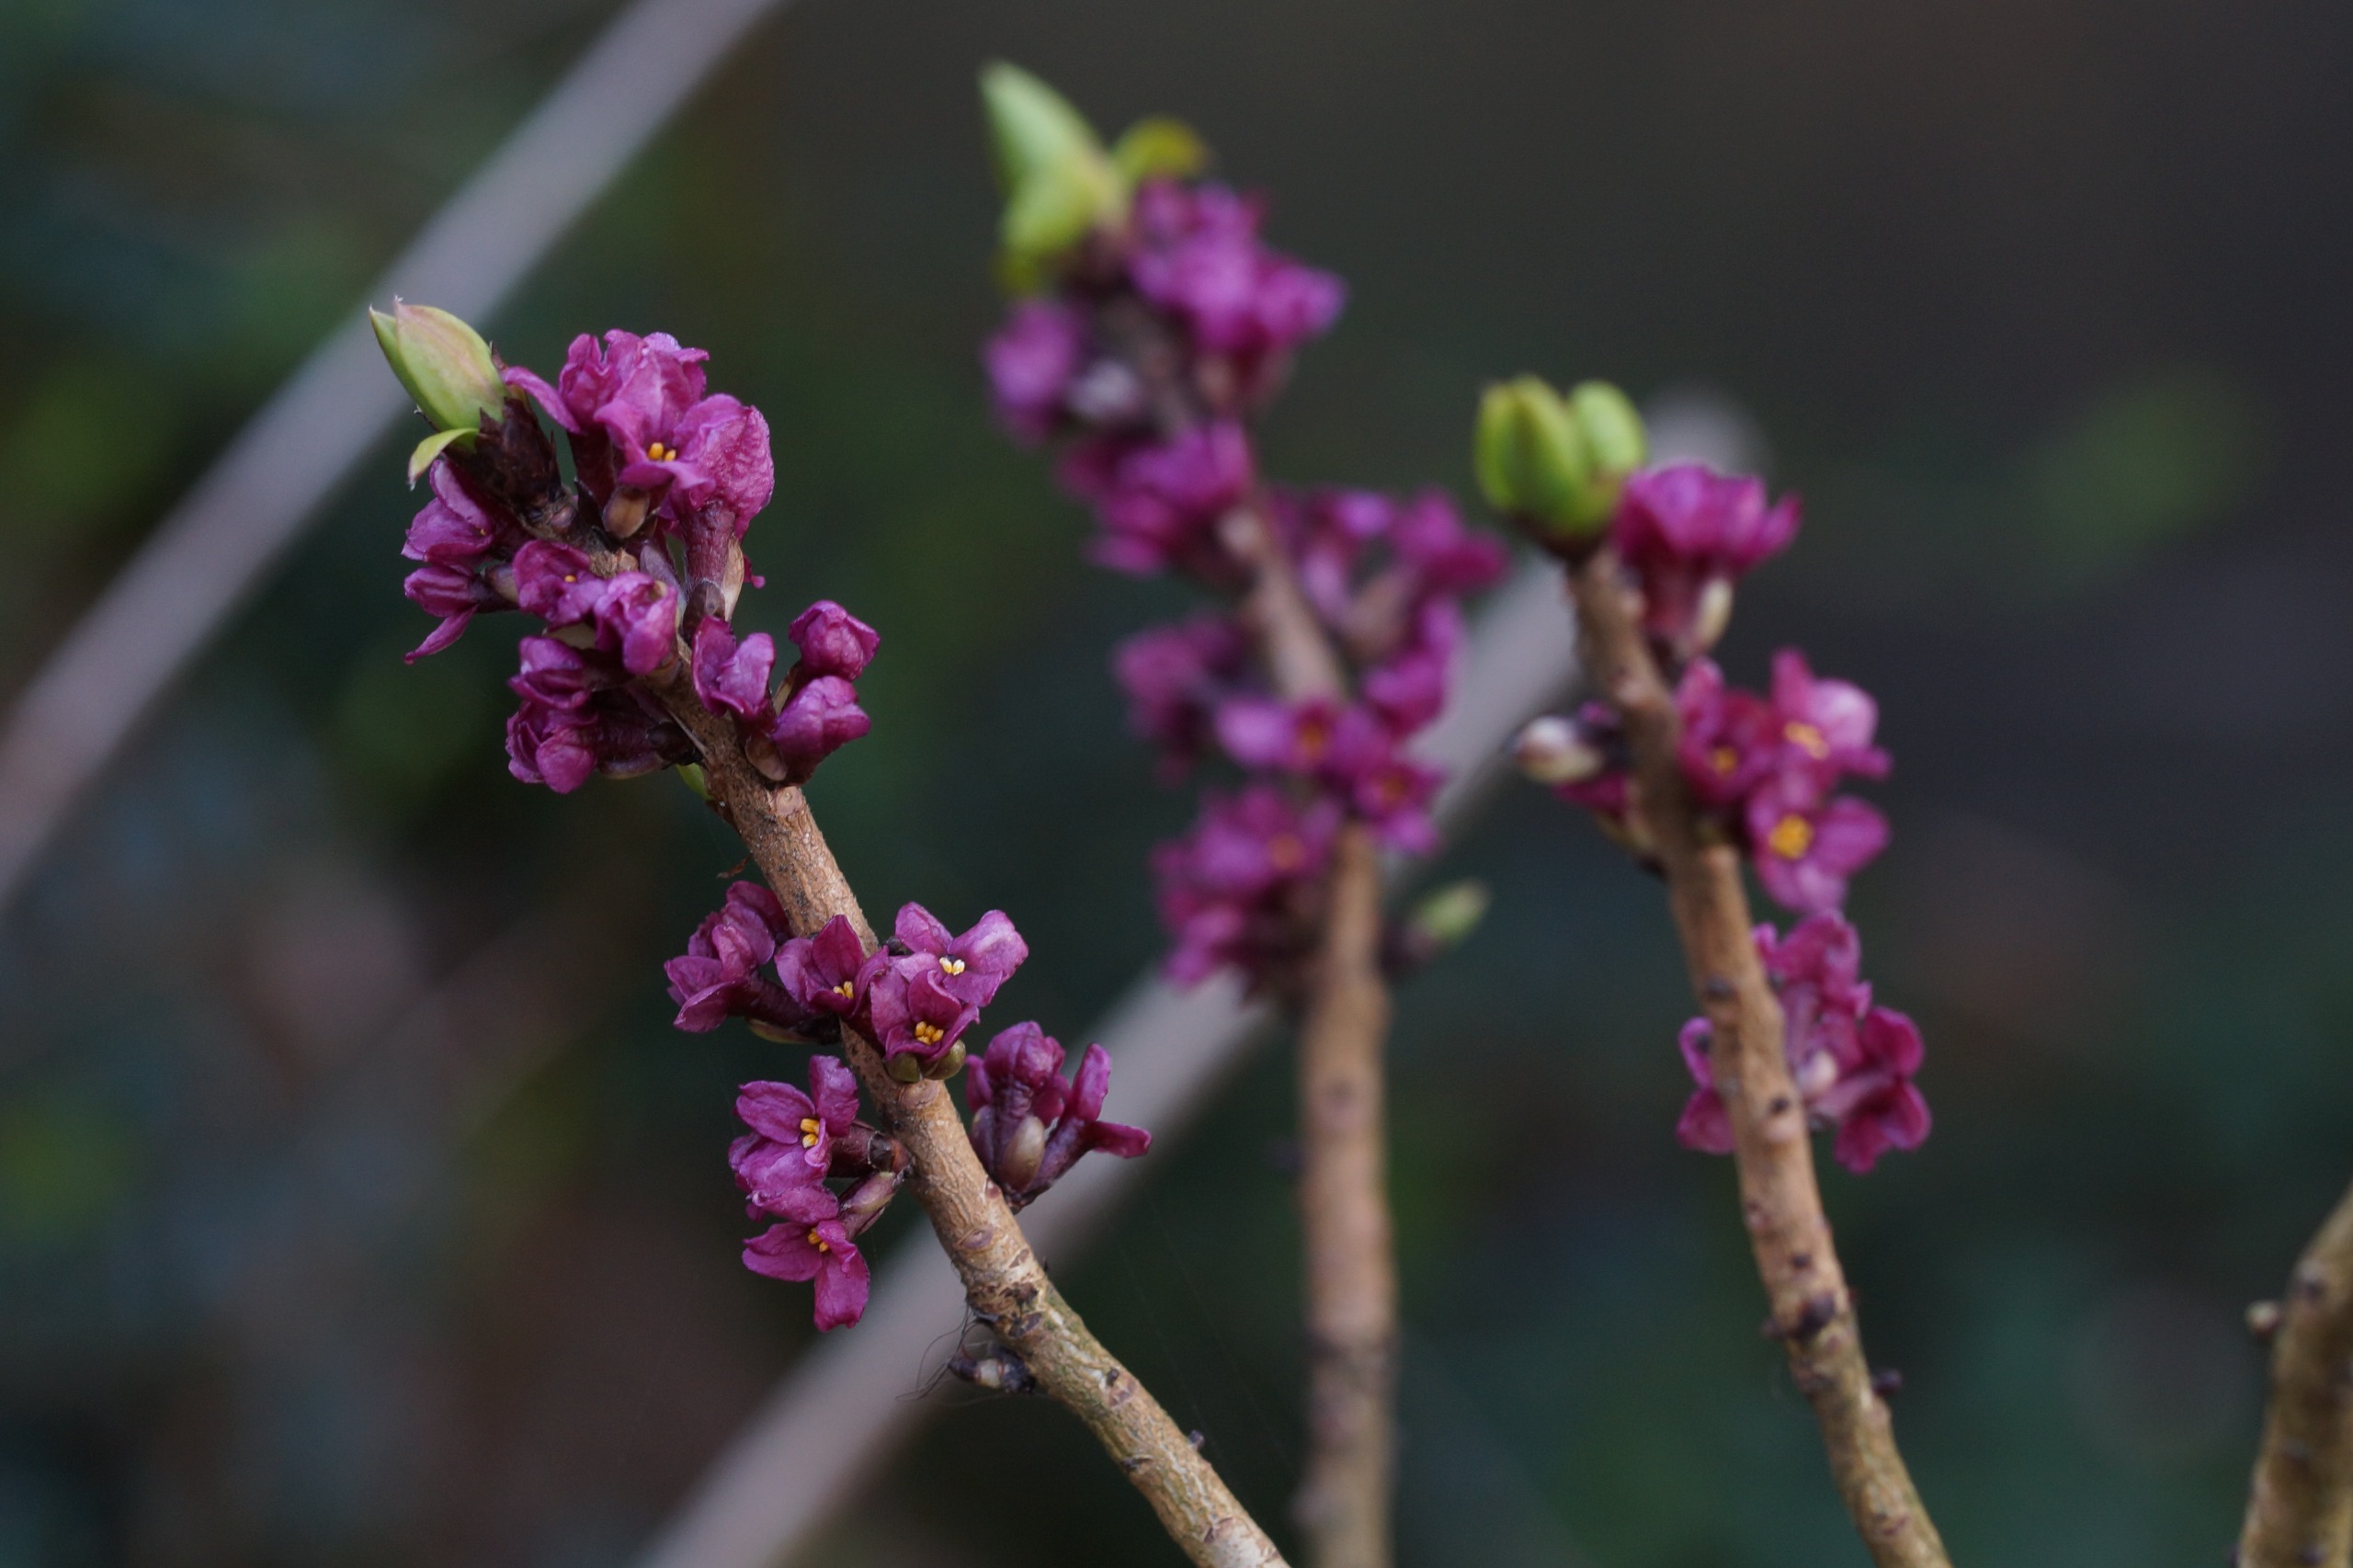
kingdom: Plantae
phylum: Tracheophyta
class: Magnoliopsida
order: Malvales
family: Thymelaeaceae
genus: Daphne
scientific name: Daphne mezereum
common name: Pebertræ
